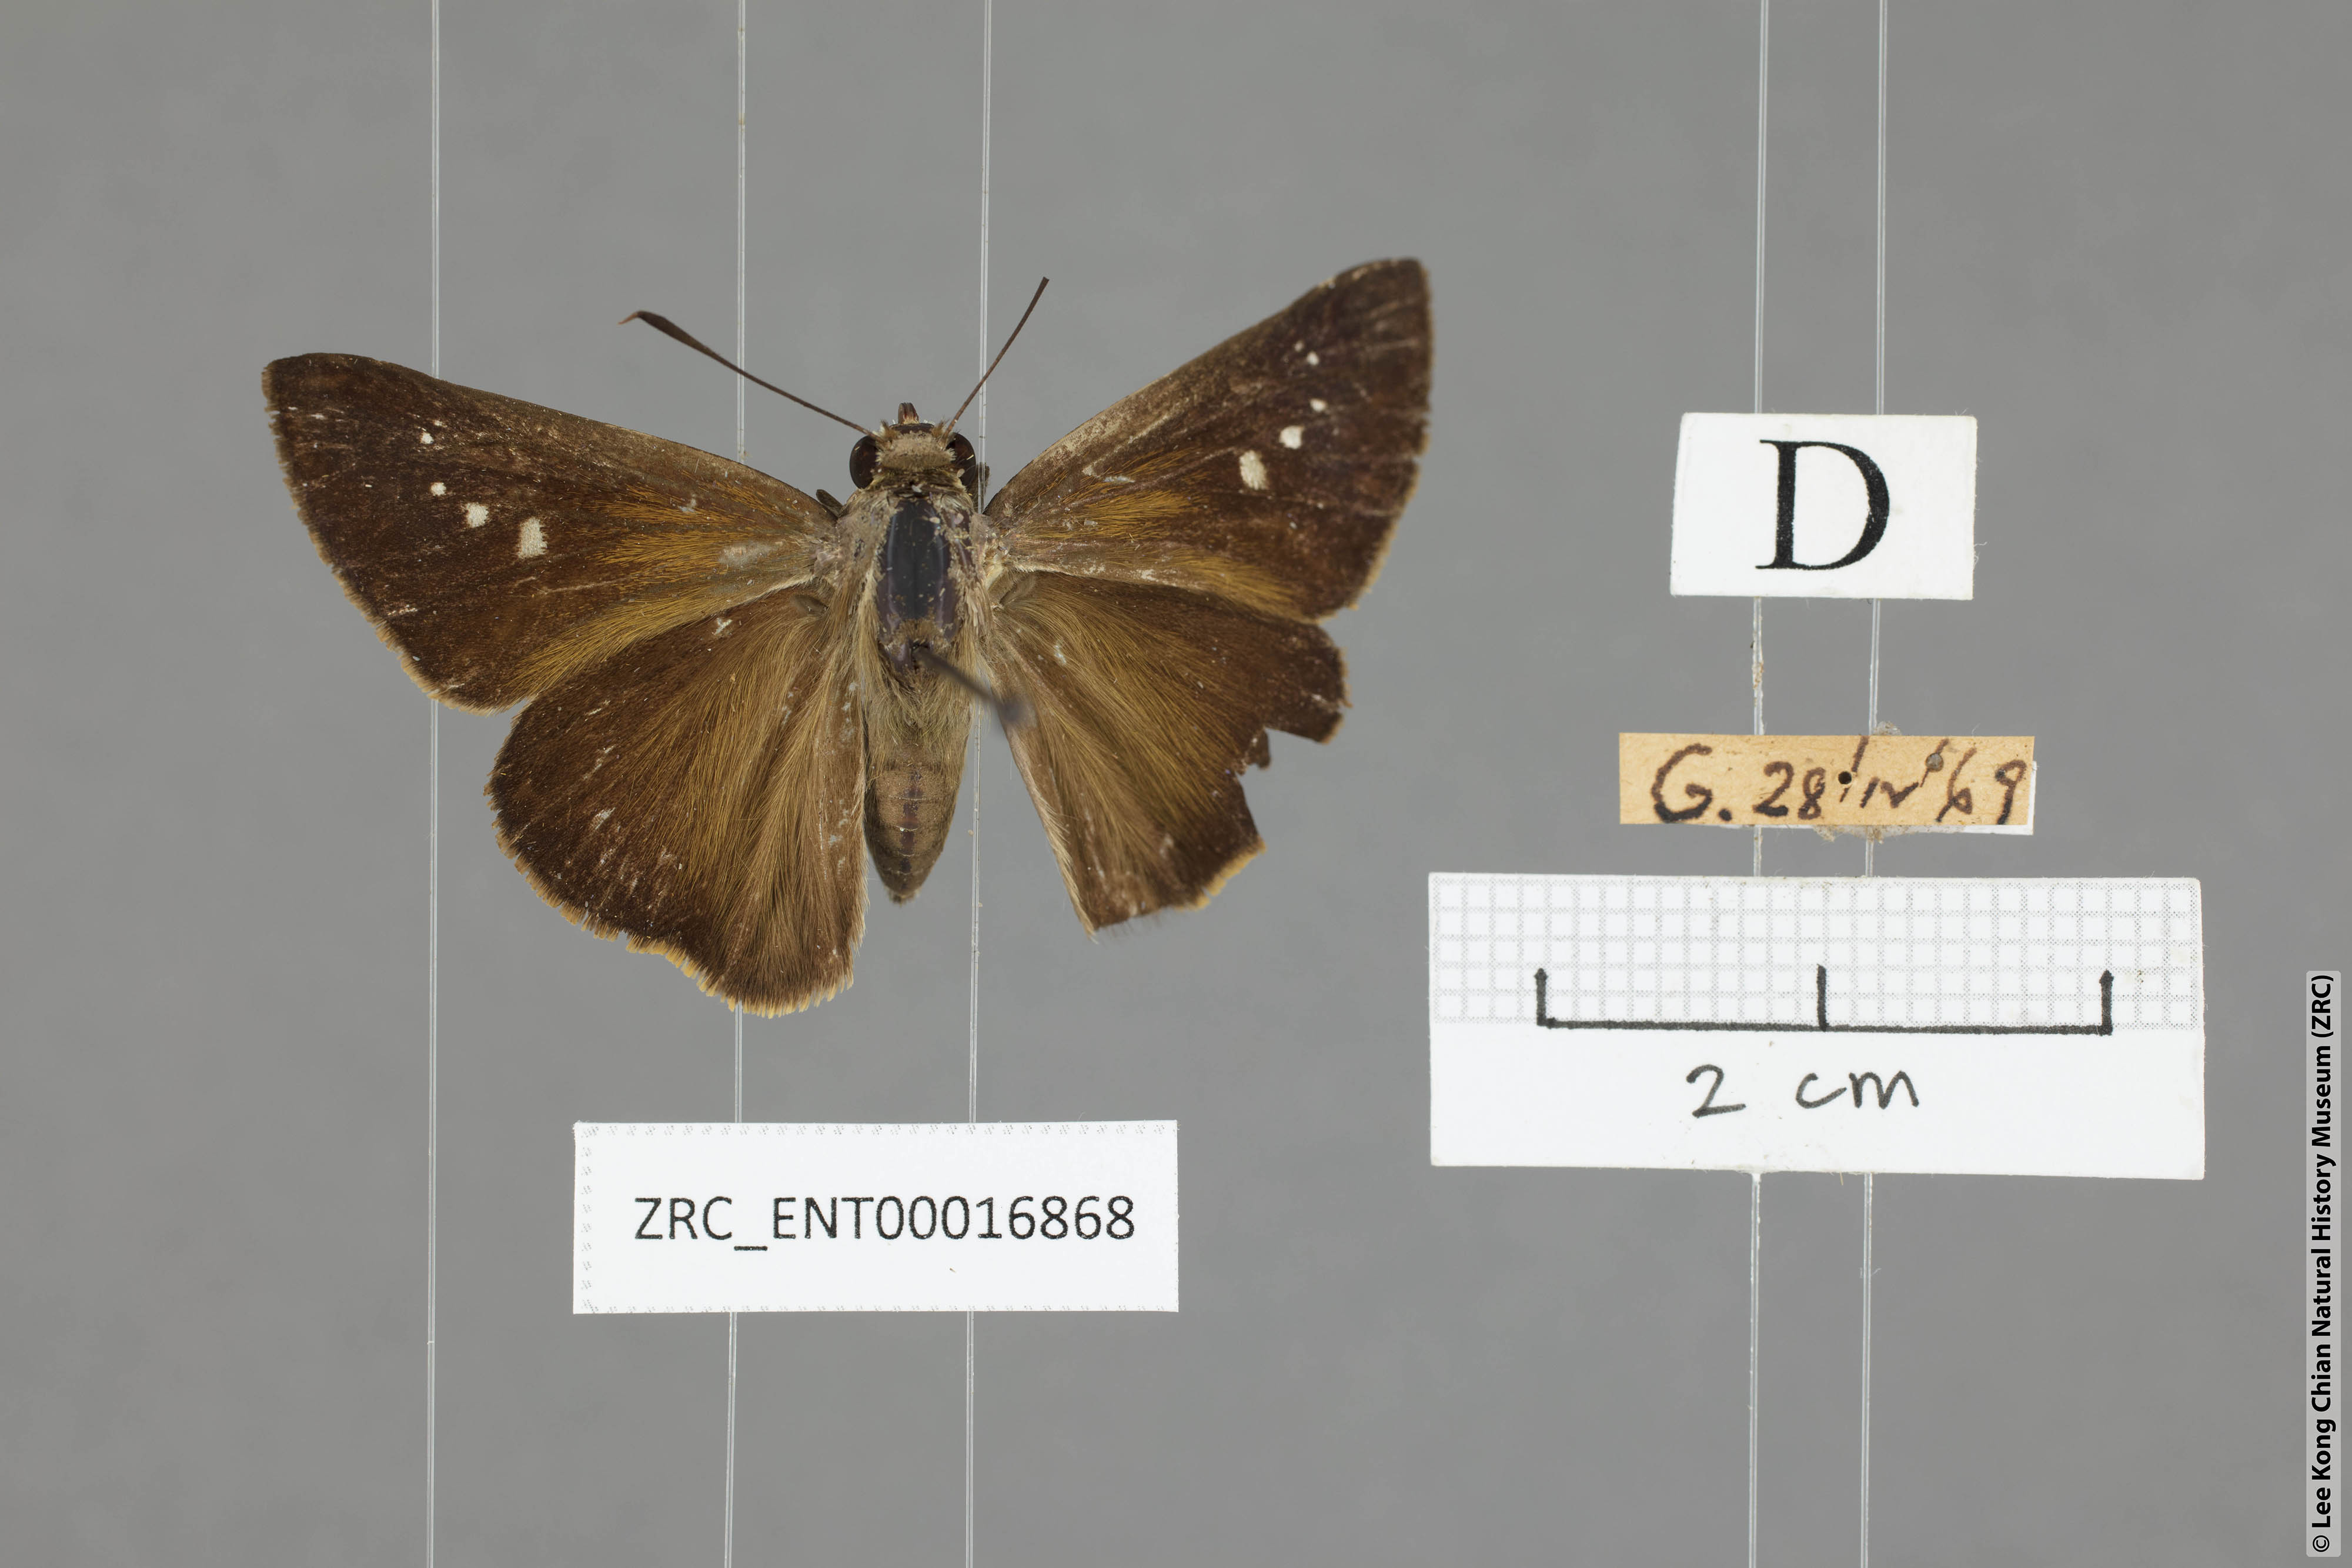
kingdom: Animalia
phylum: Arthropoda
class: Insecta
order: Lepidoptera
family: Hesperiidae
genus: Caltoris
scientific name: Caltoris tulsi
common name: Purple swift
